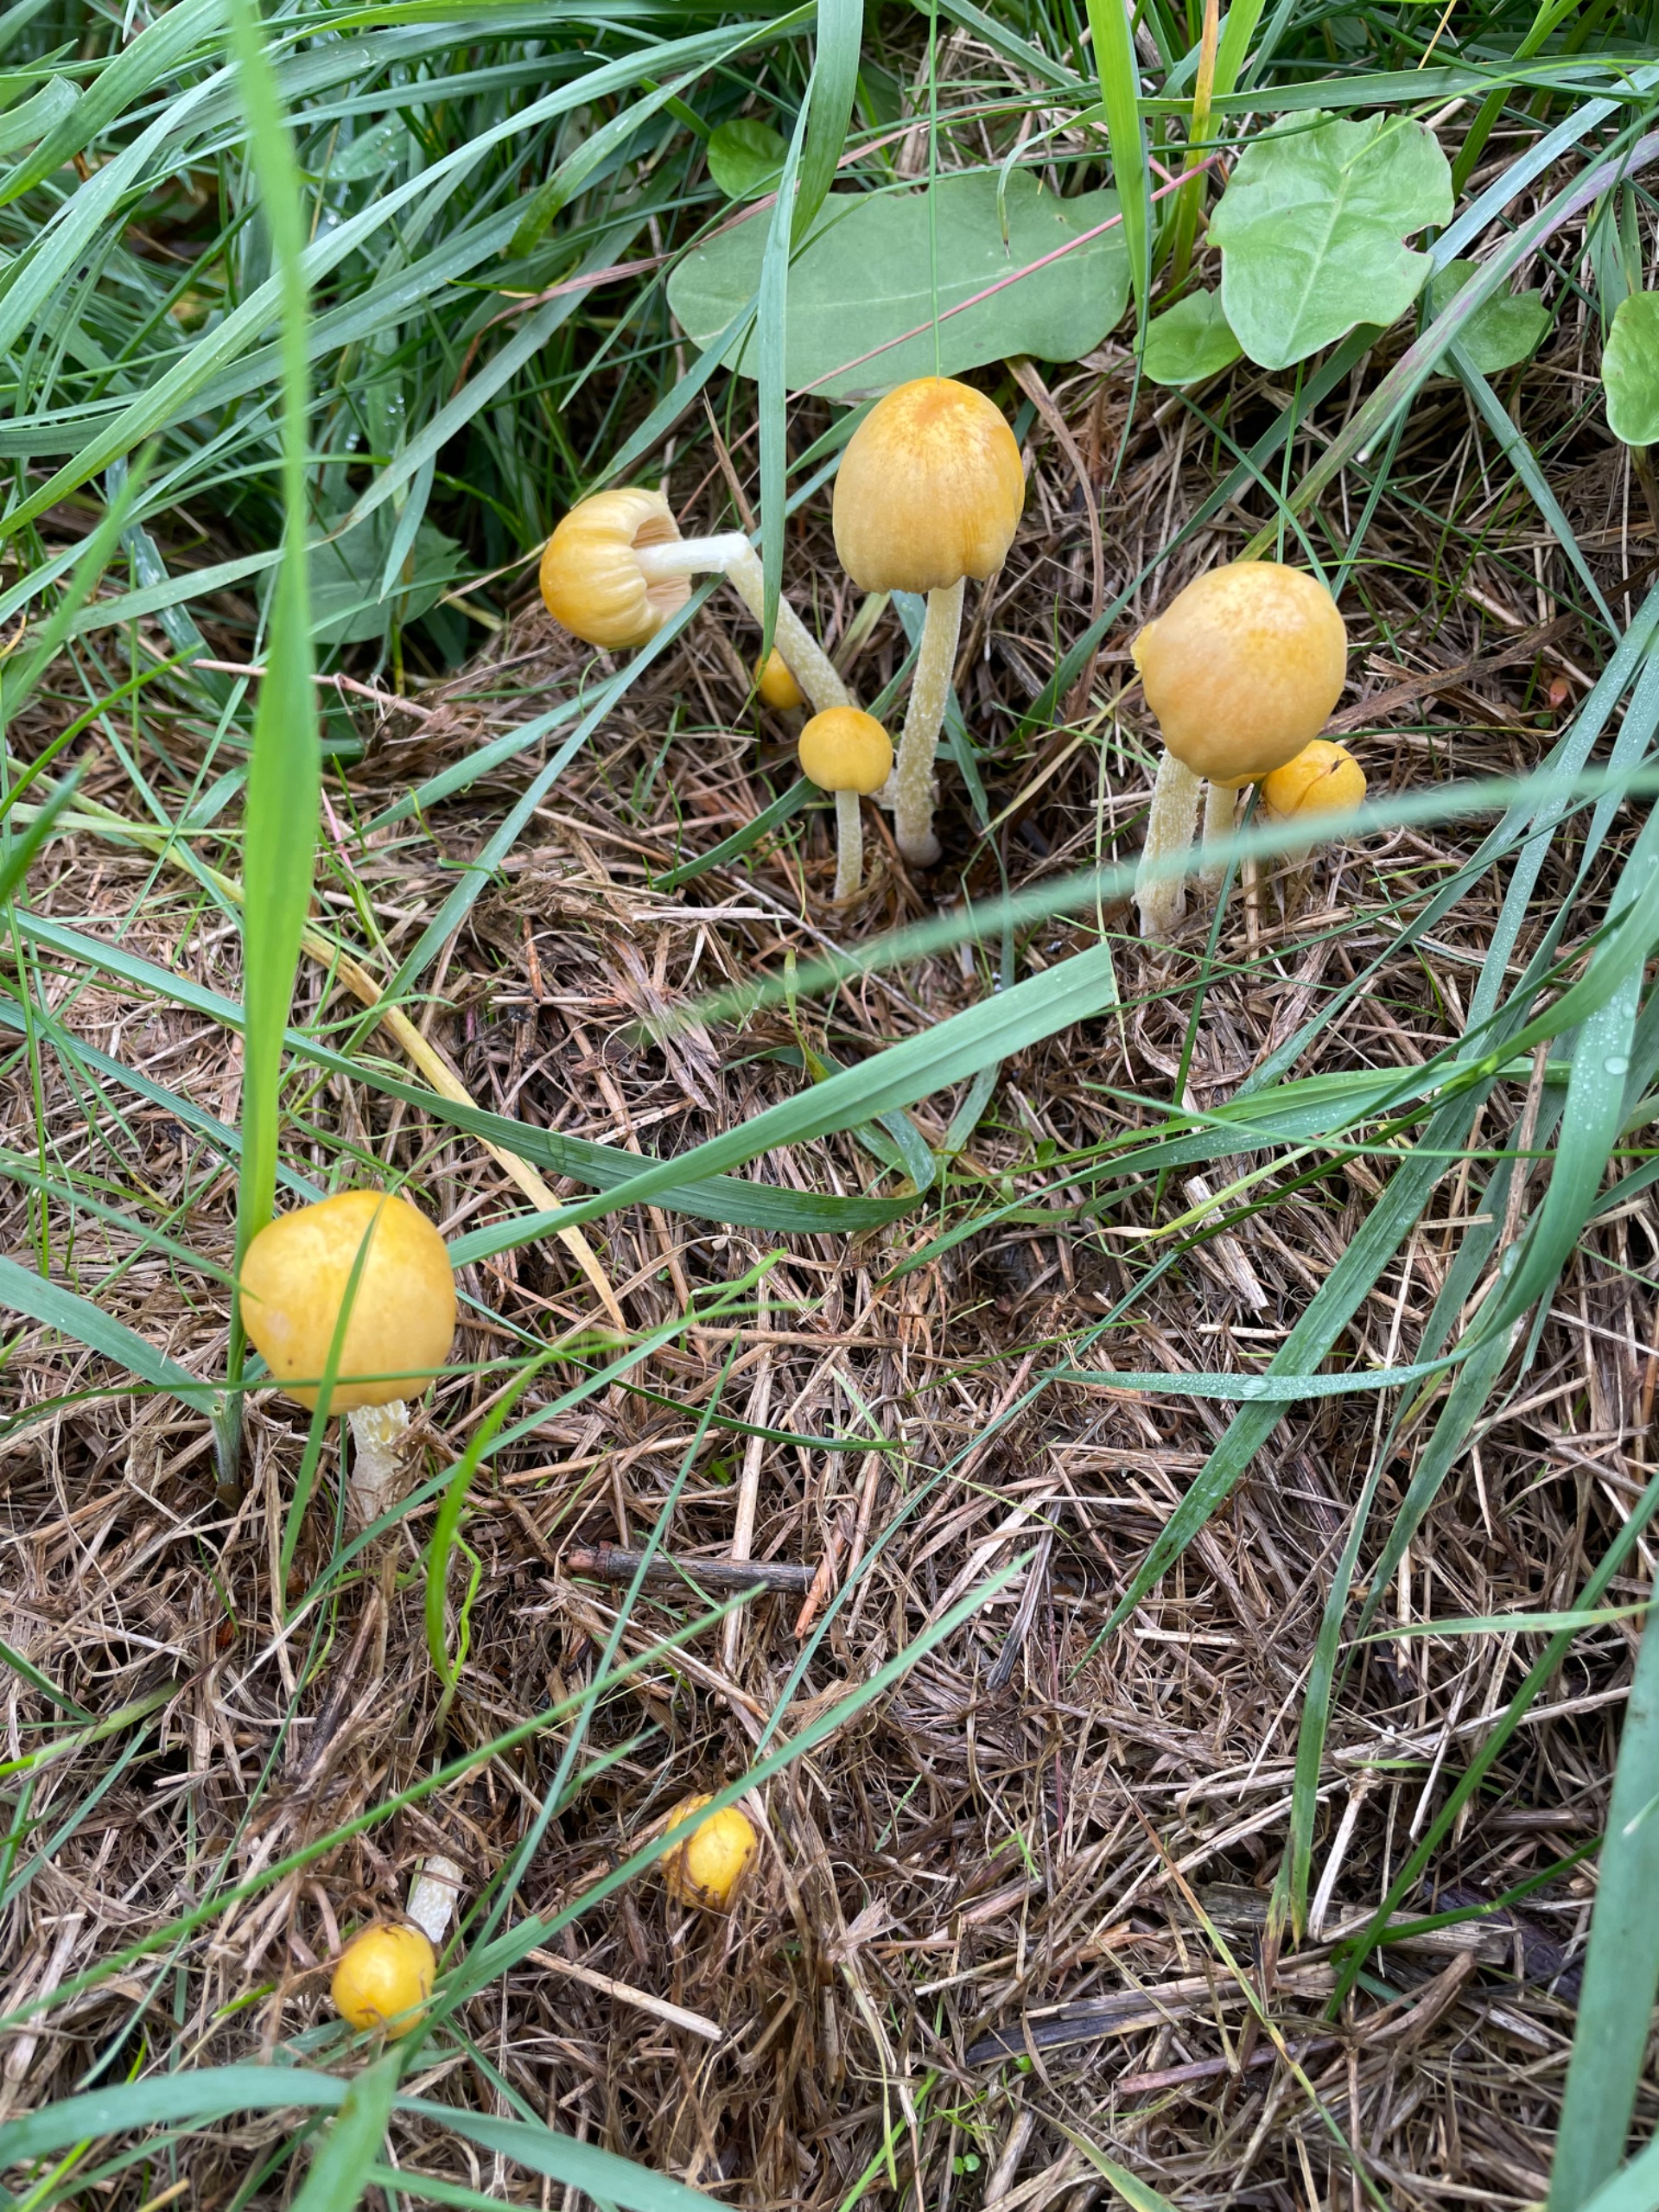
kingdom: Fungi
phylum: Basidiomycota
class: Agaricomycetes
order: Agaricales
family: Bolbitiaceae
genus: Bolbitius
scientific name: Bolbitius titubans
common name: Almindelig gulhat
